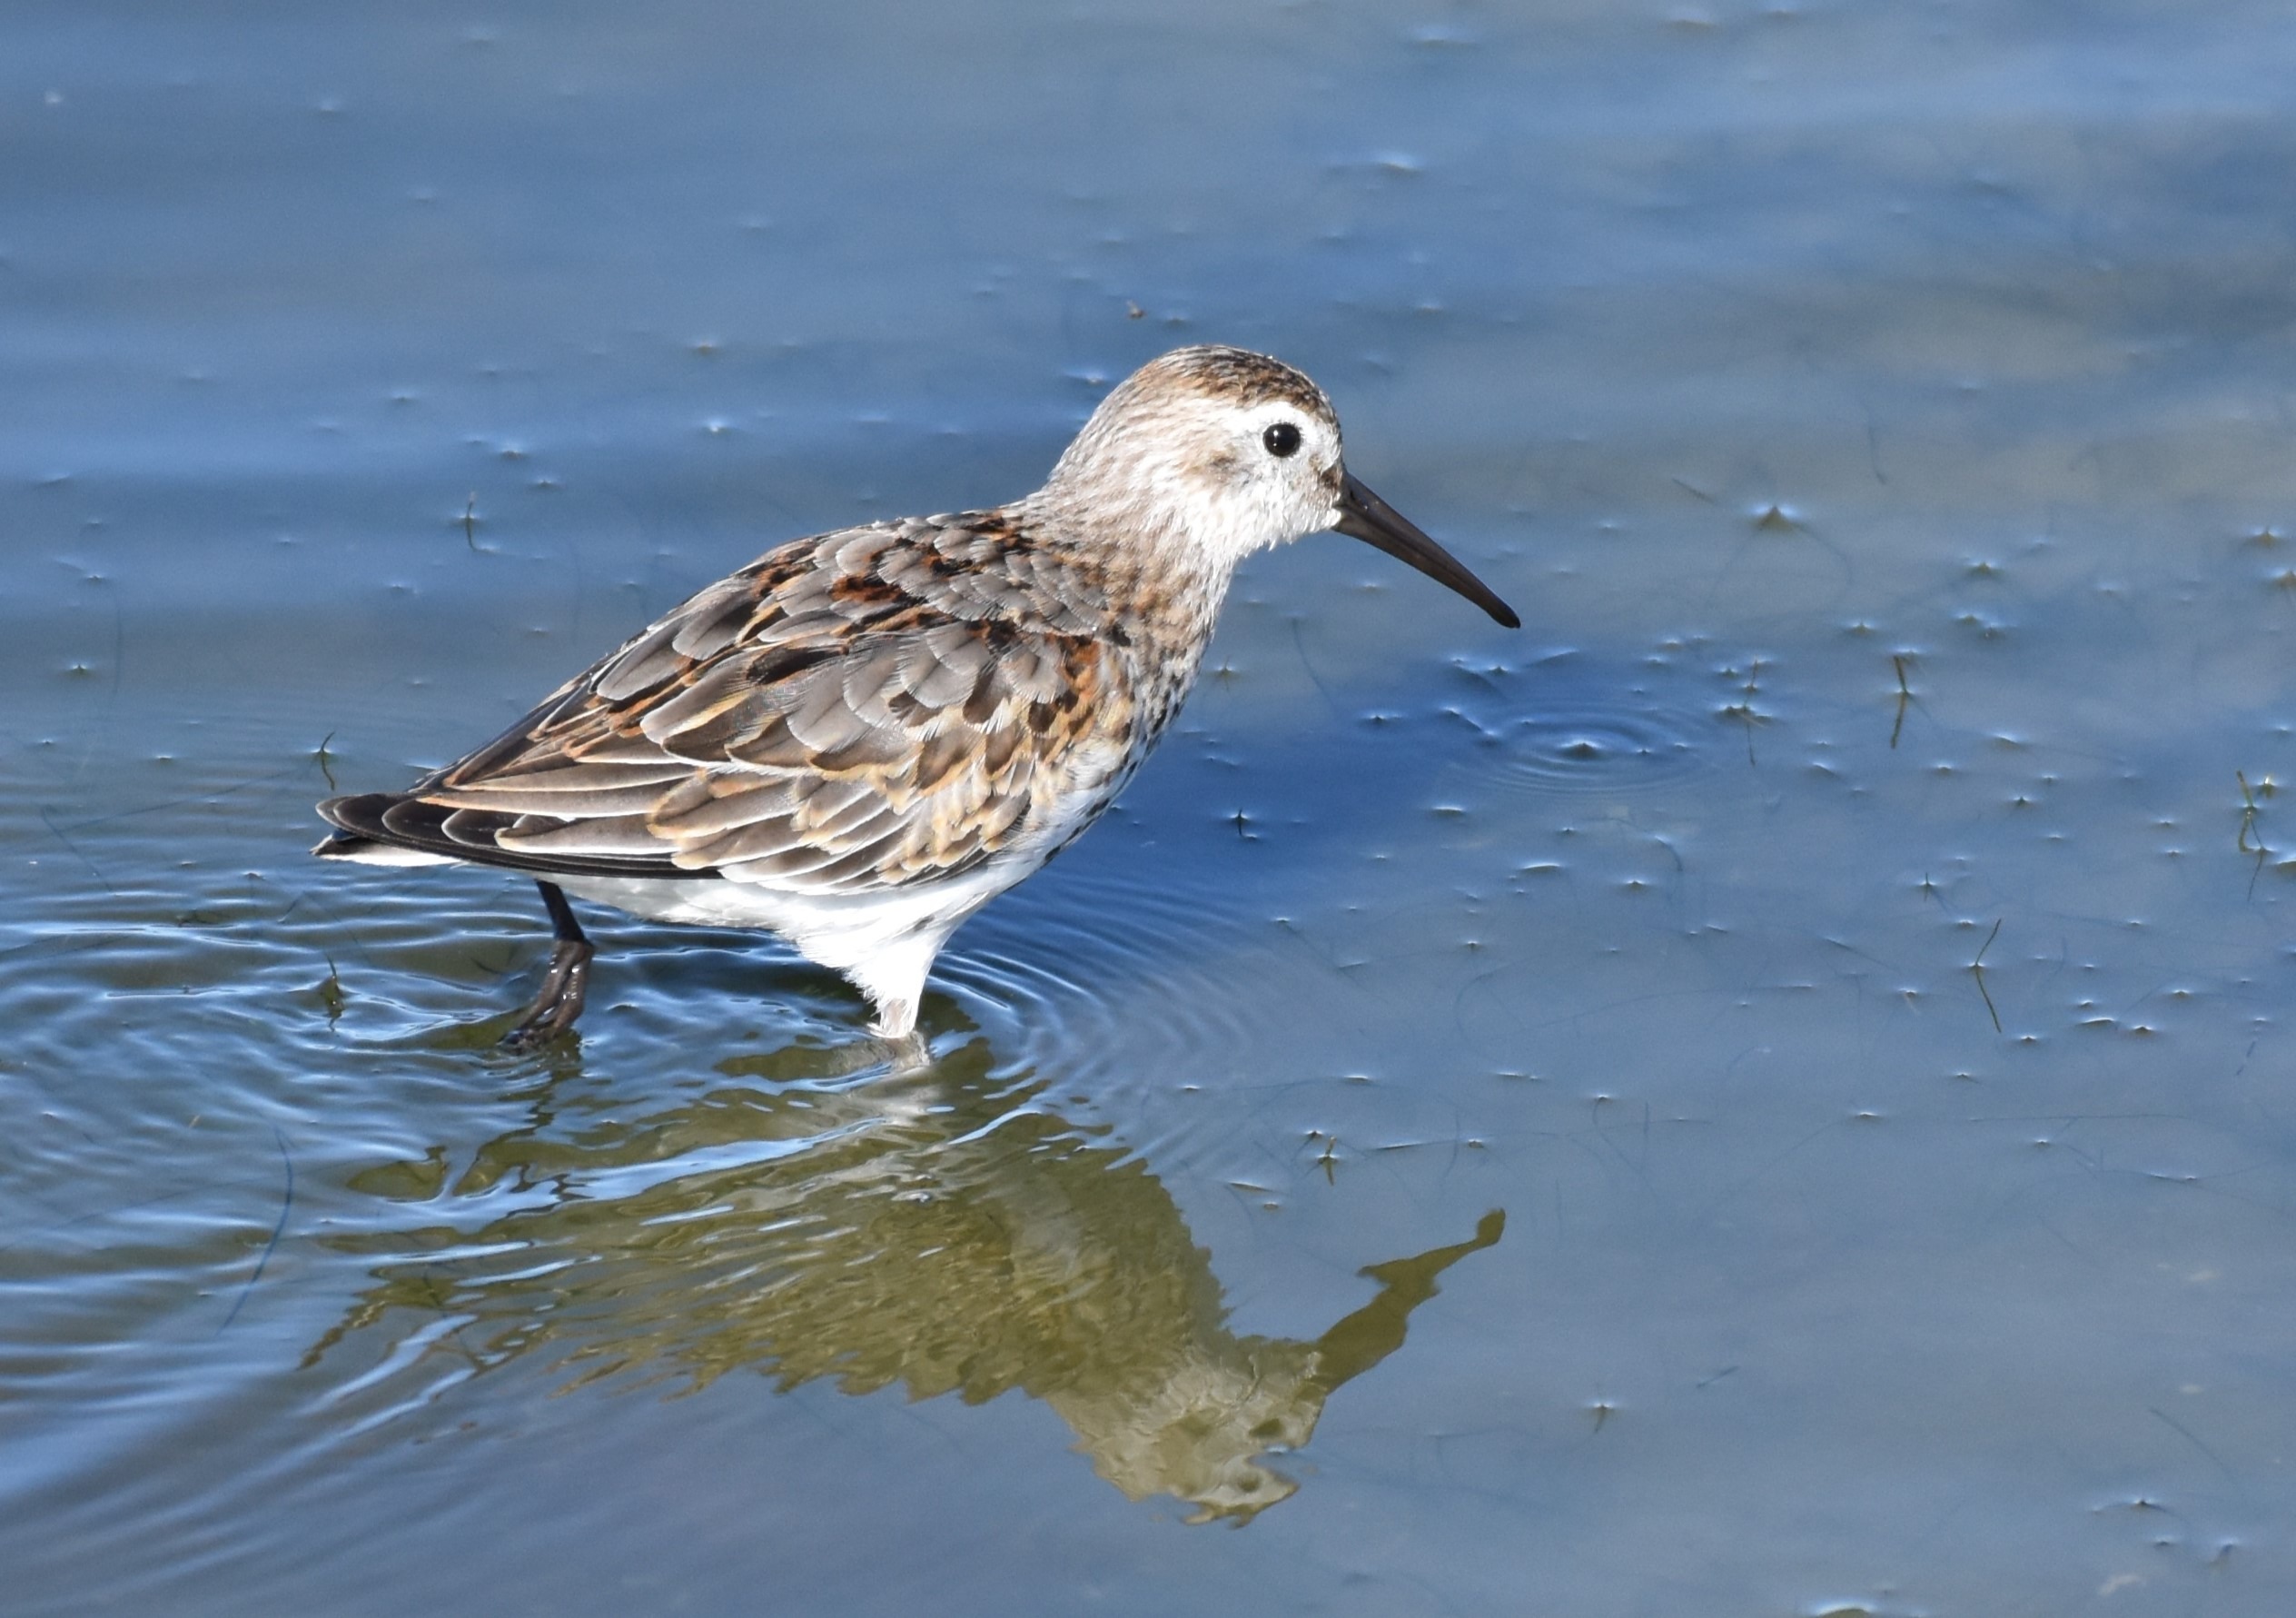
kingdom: Animalia
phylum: Chordata
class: Aves
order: Charadriiformes
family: Scolopacidae
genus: Calidris
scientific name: Calidris alpina
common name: Almindelig ryle
